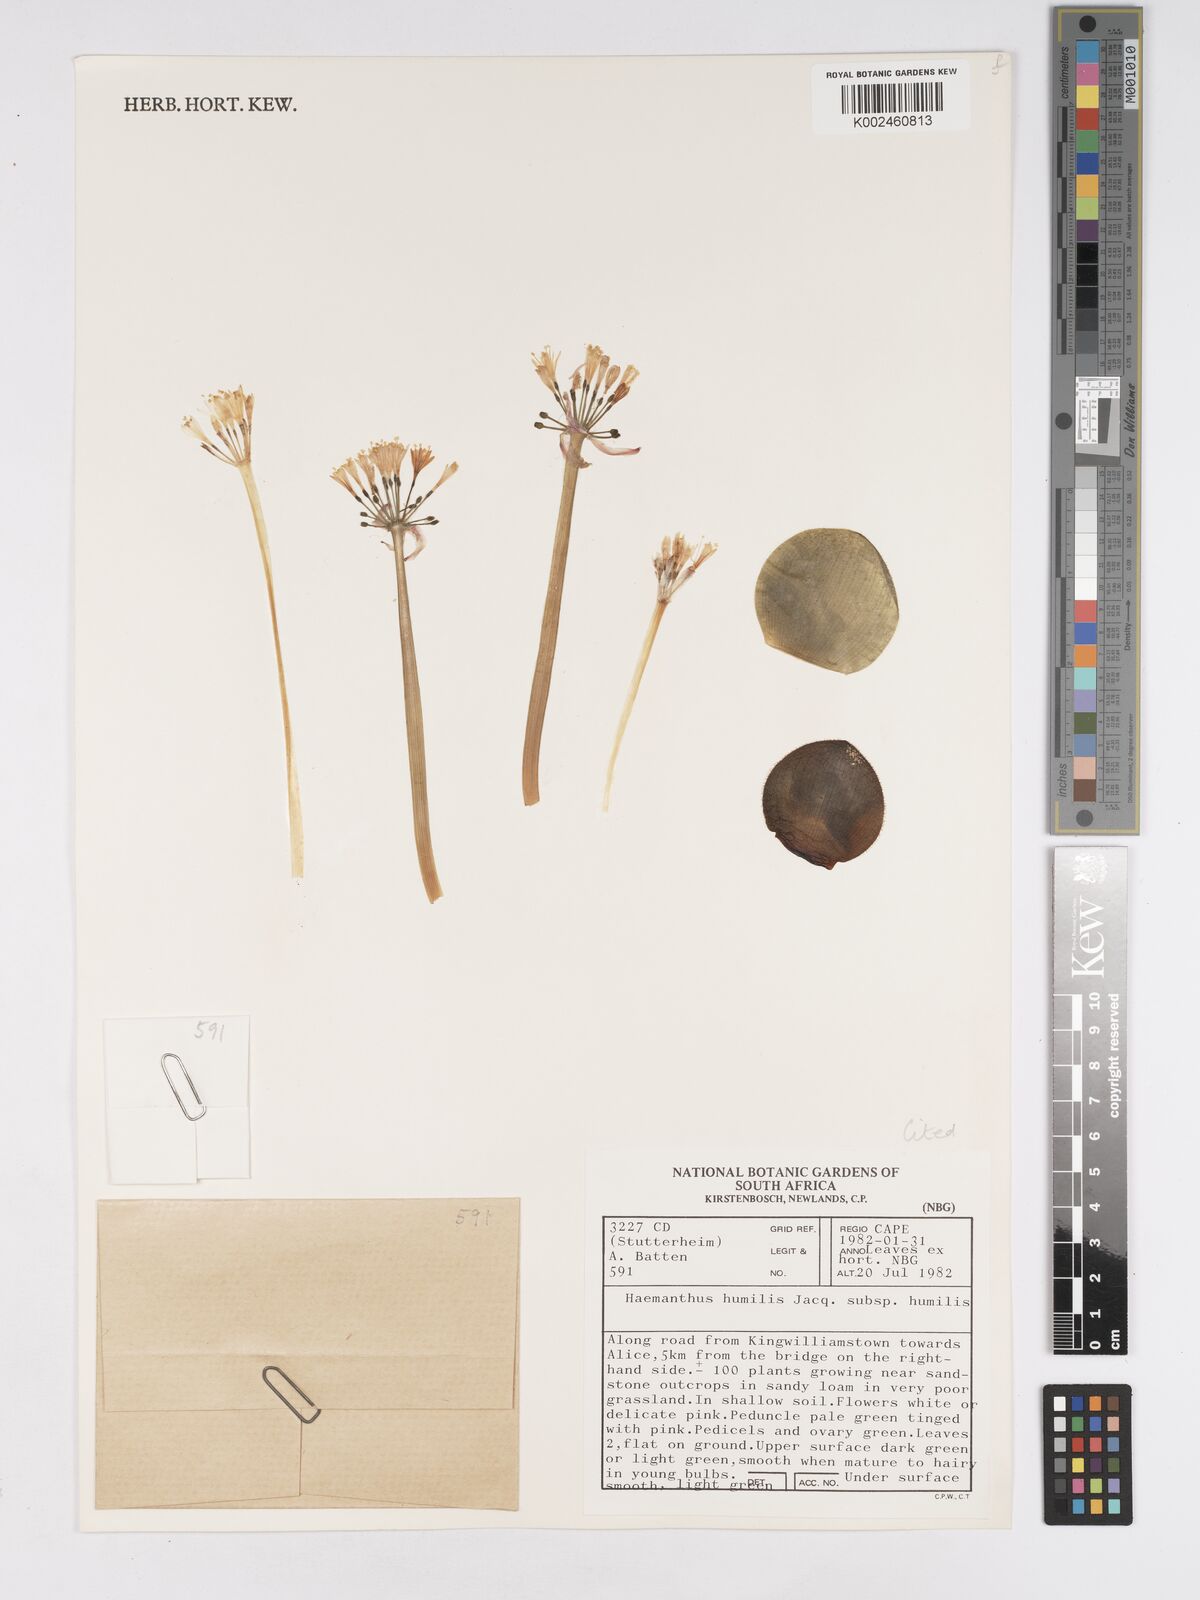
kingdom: Plantae
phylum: Tracheophyta
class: Liliopsida
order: Asparagales
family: Amaryllidaceae
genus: Haemanthus
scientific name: Haemanthus humilis
